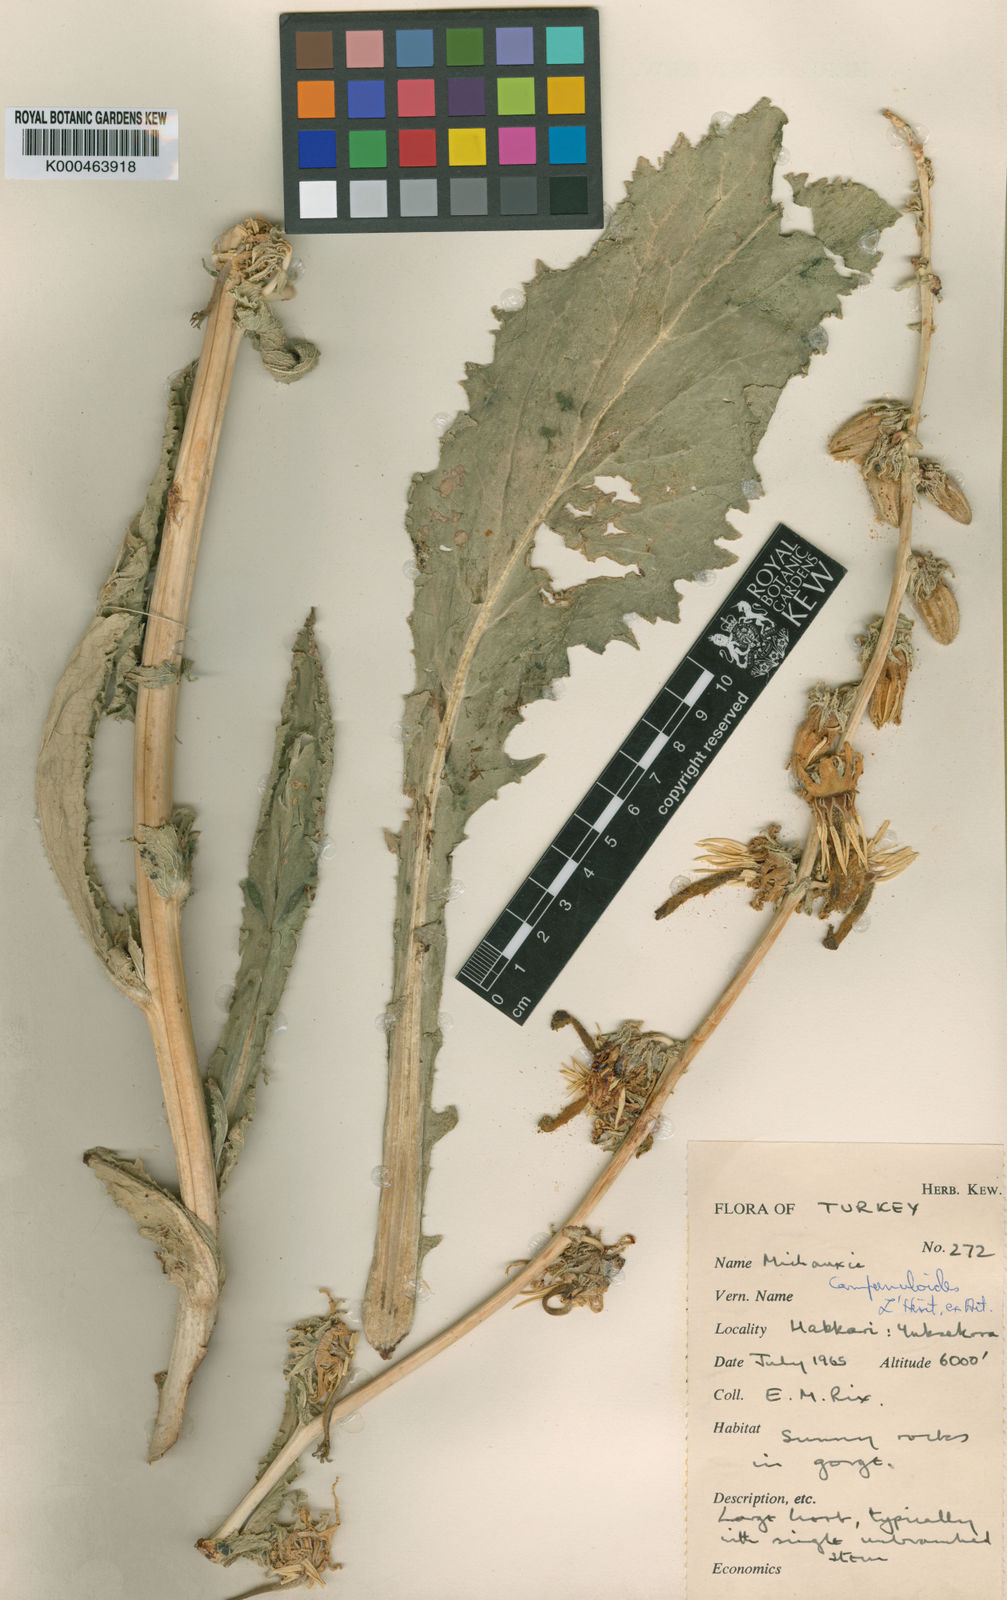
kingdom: Plantae
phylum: Tracheophyta
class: Magnoliopsida
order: Asterales
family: Campanulaceae
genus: Michauxia
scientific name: Michauxia
